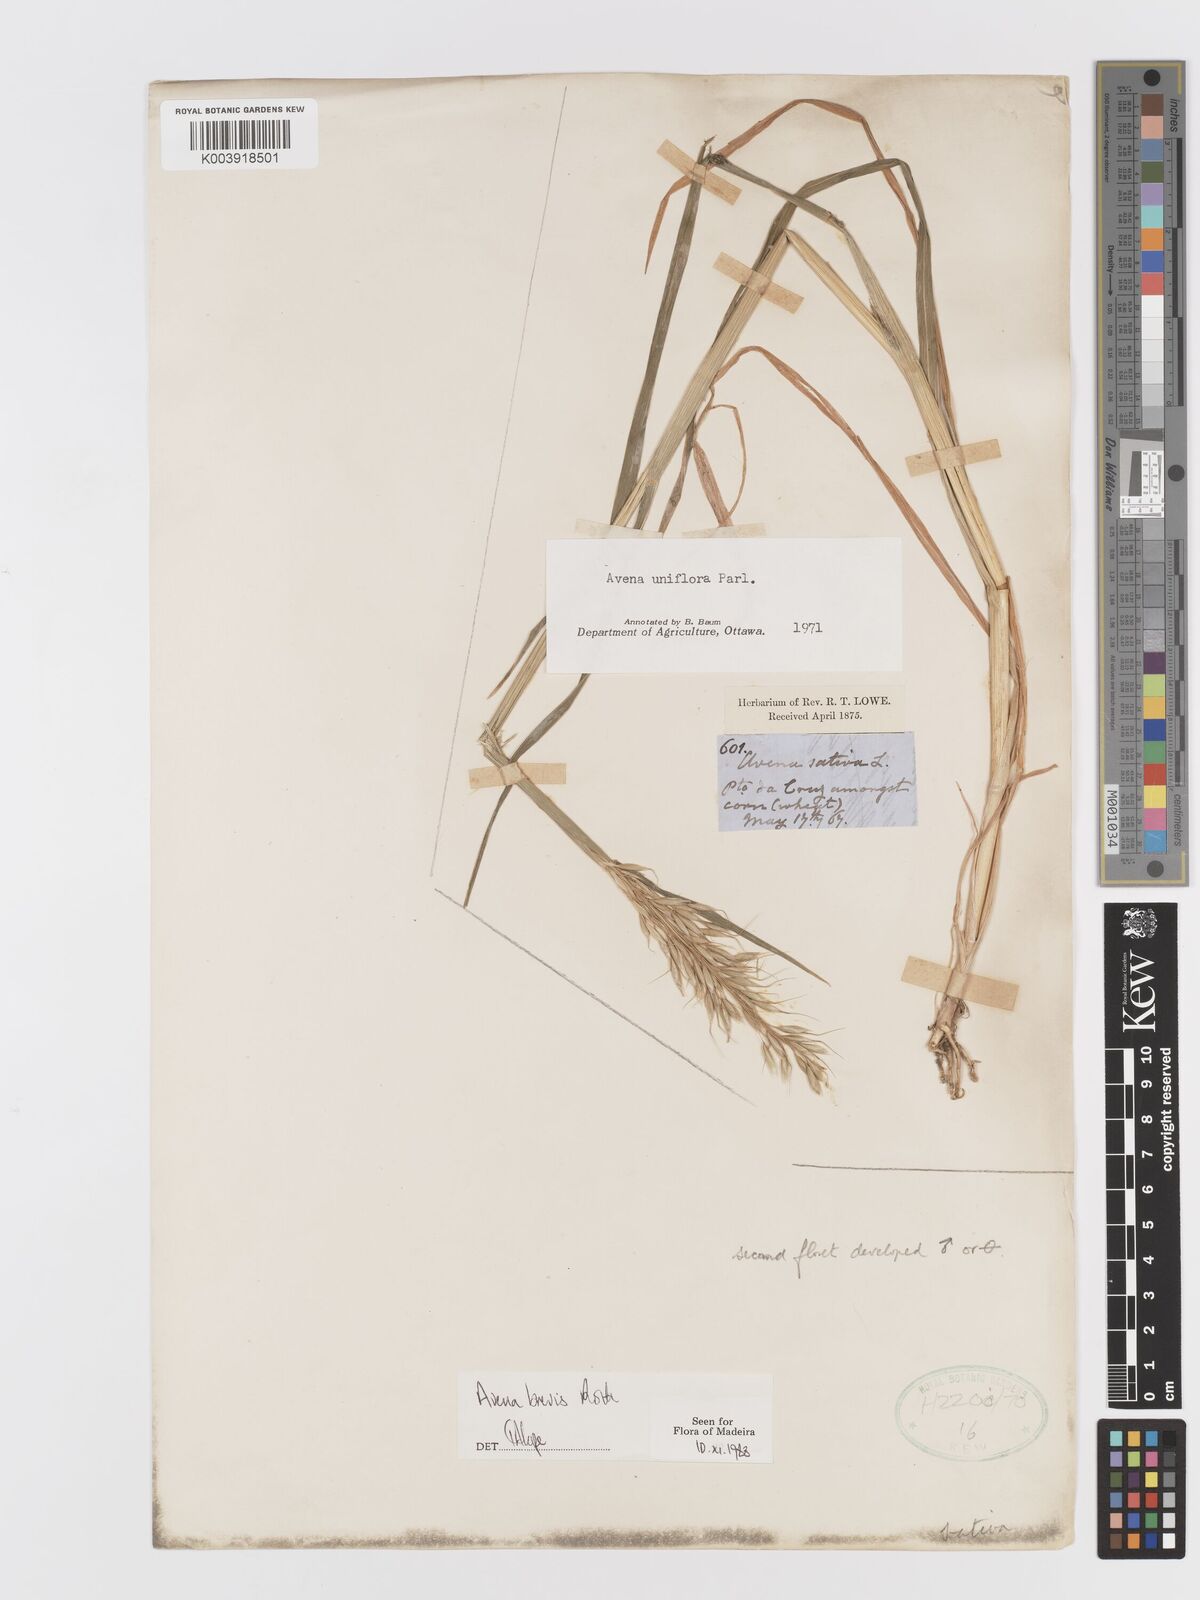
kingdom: Plantae
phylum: Tracheophyta
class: Liliopsida
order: Poales
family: Poaceae
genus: Avena
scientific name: Avena brevis
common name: Short oat
